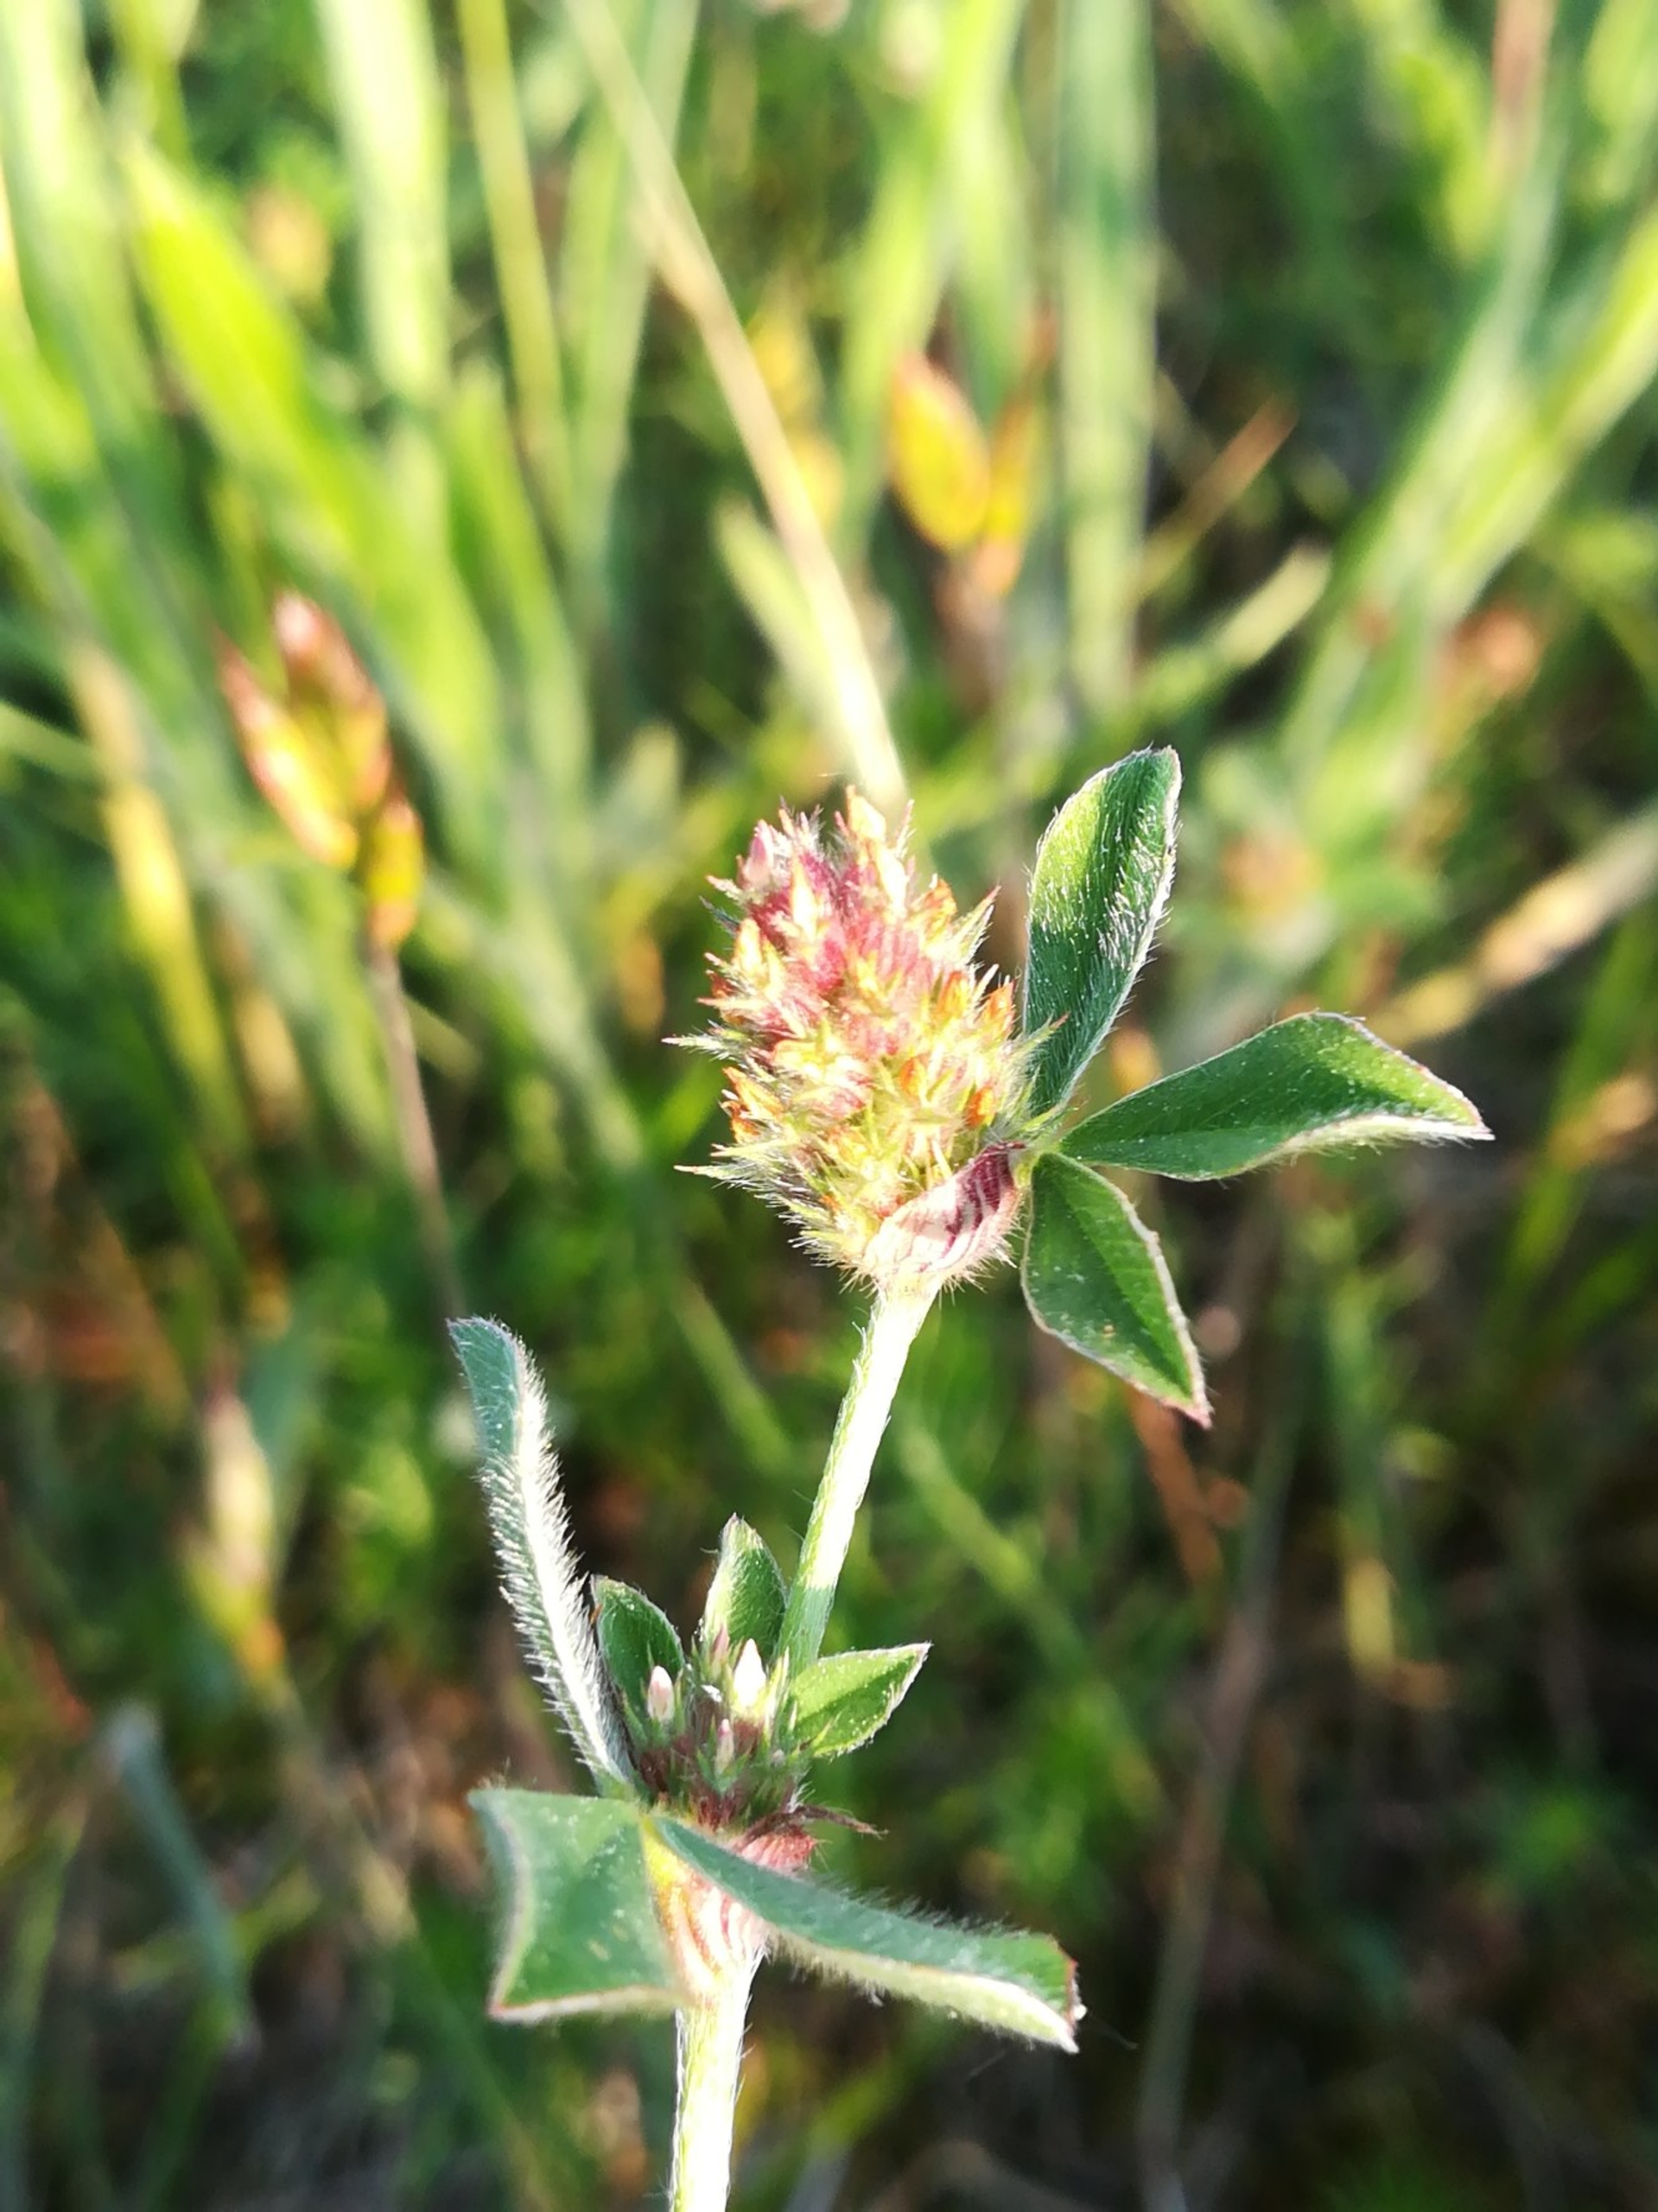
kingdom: Plantae
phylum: Tracheophyta
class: Magnoliopsida
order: Fabales
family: Fabaceae
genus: Trifolium
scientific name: Trifolium striatum
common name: Stribet kløver
